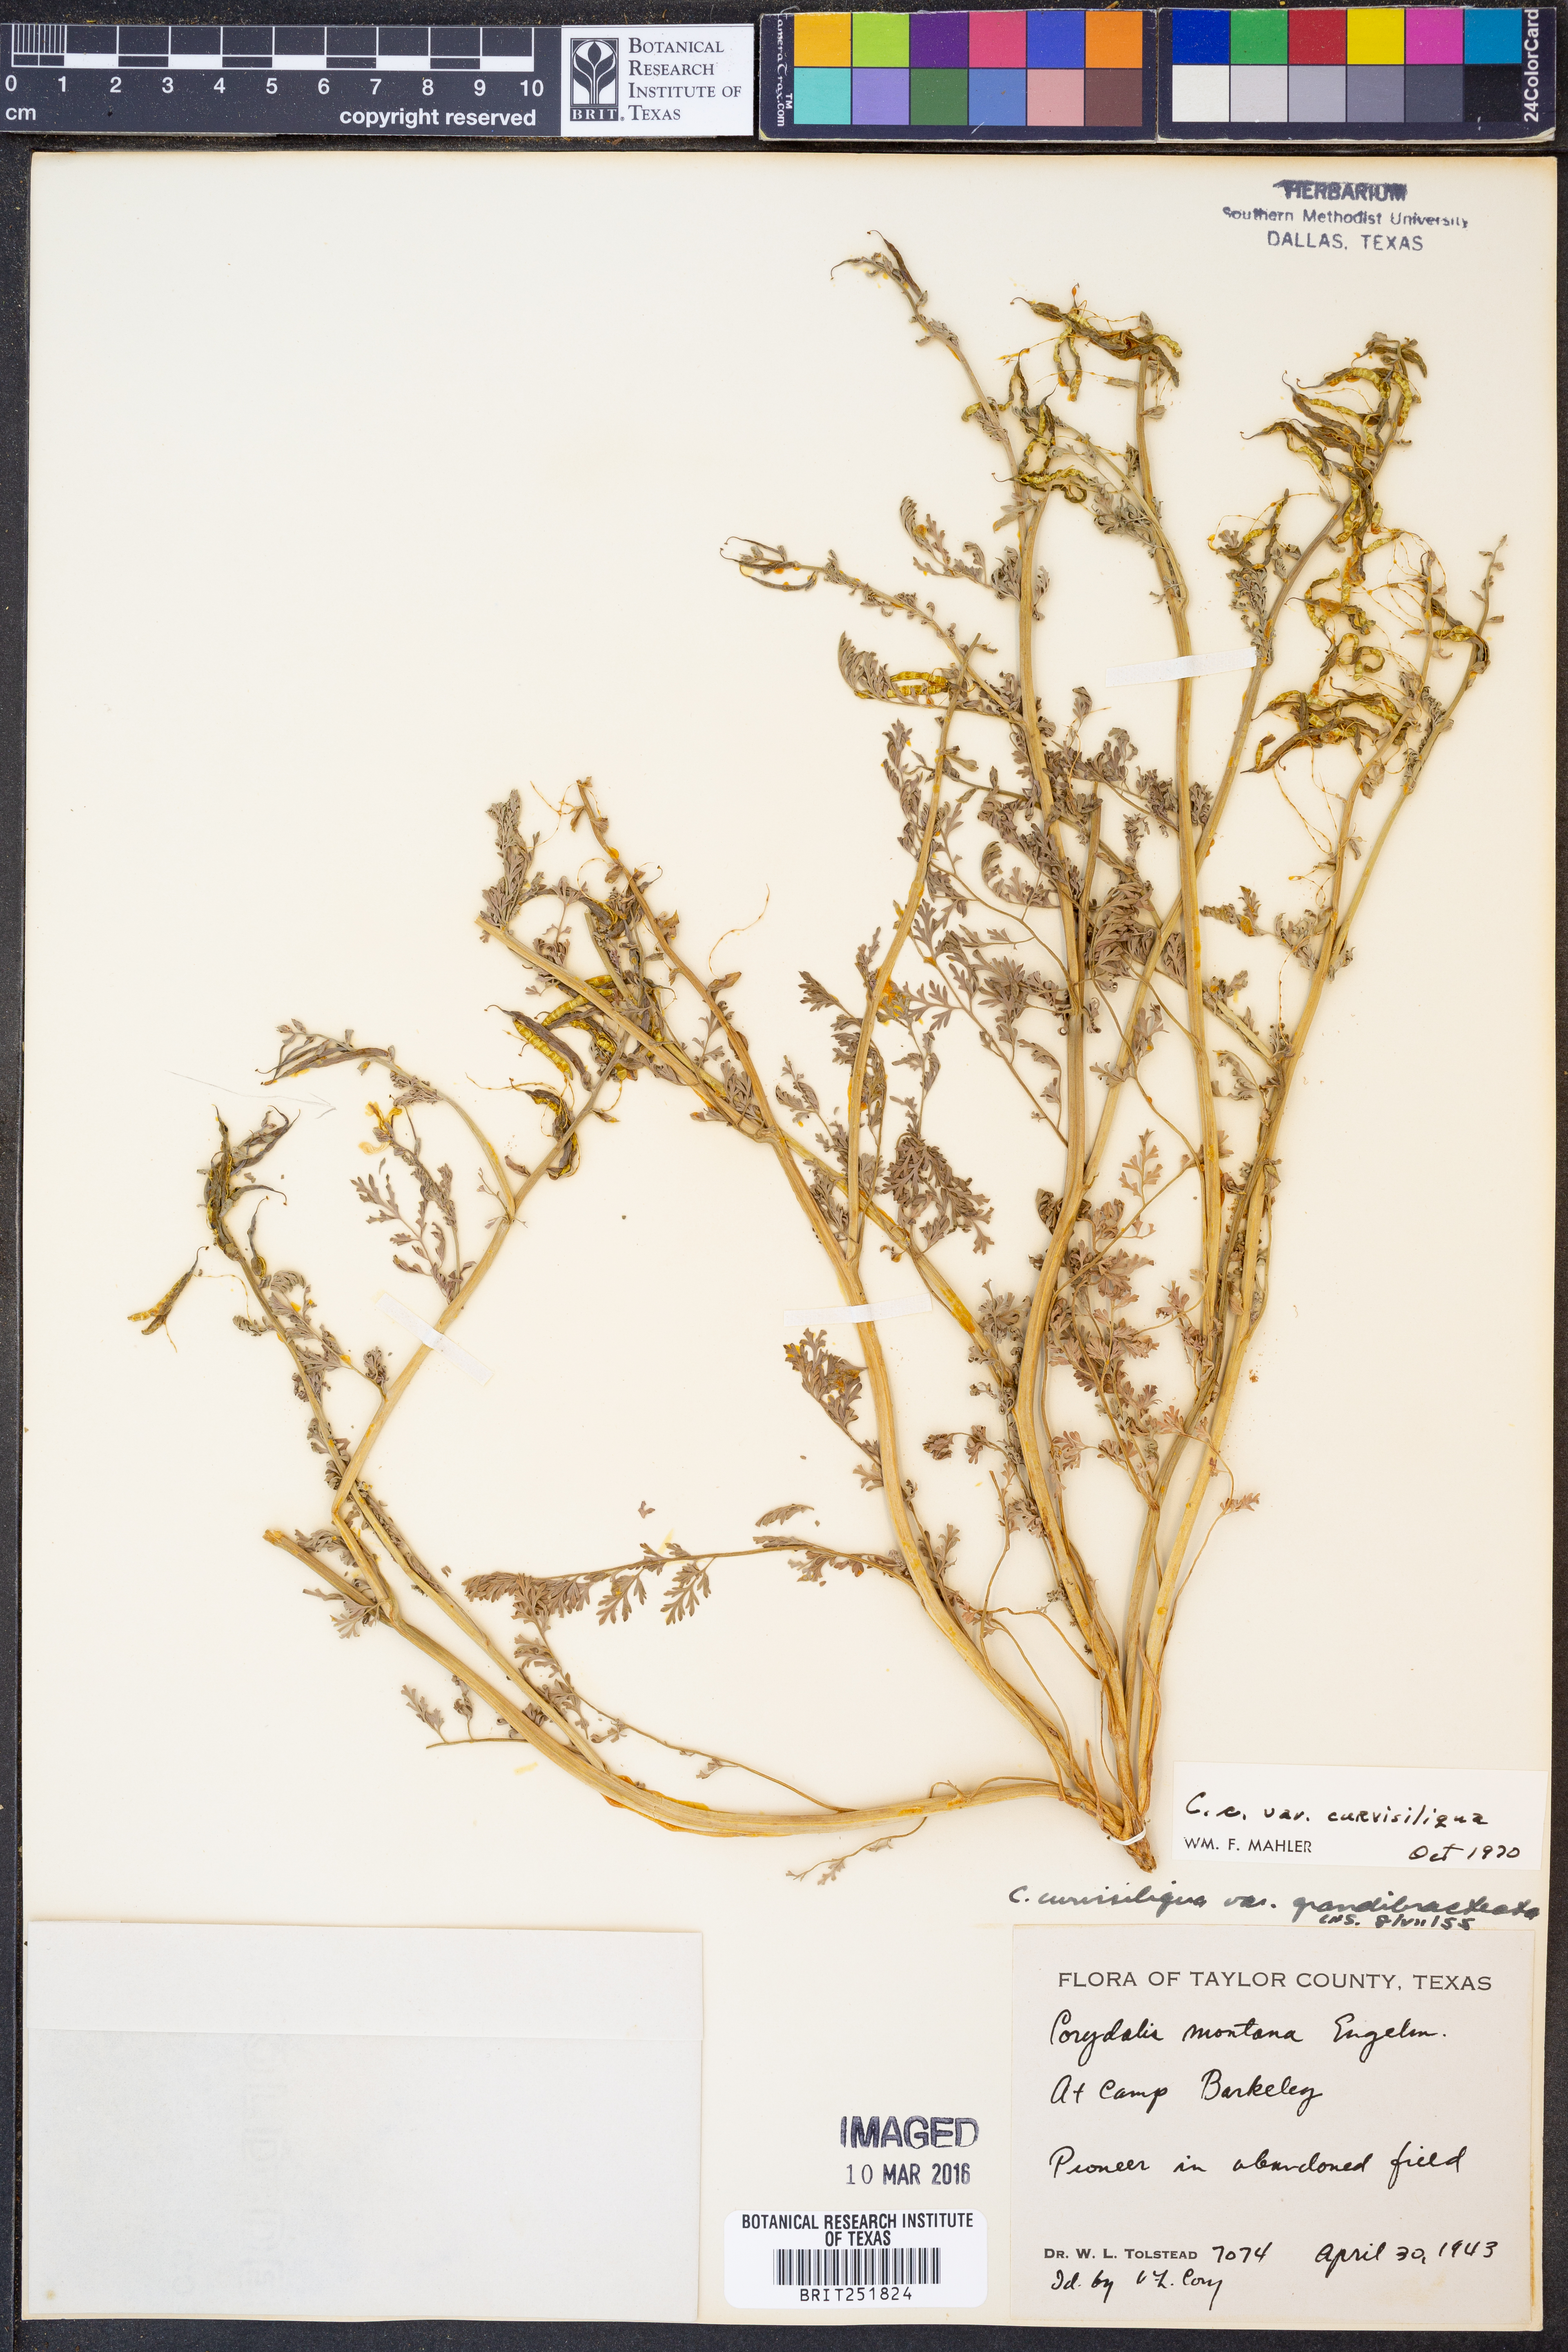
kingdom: Plantae
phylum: Tracheophyta
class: Magnoliopsida
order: Ranunculales
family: Papaveraceae
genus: Corydalis
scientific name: Corydalis curvisiliqua
